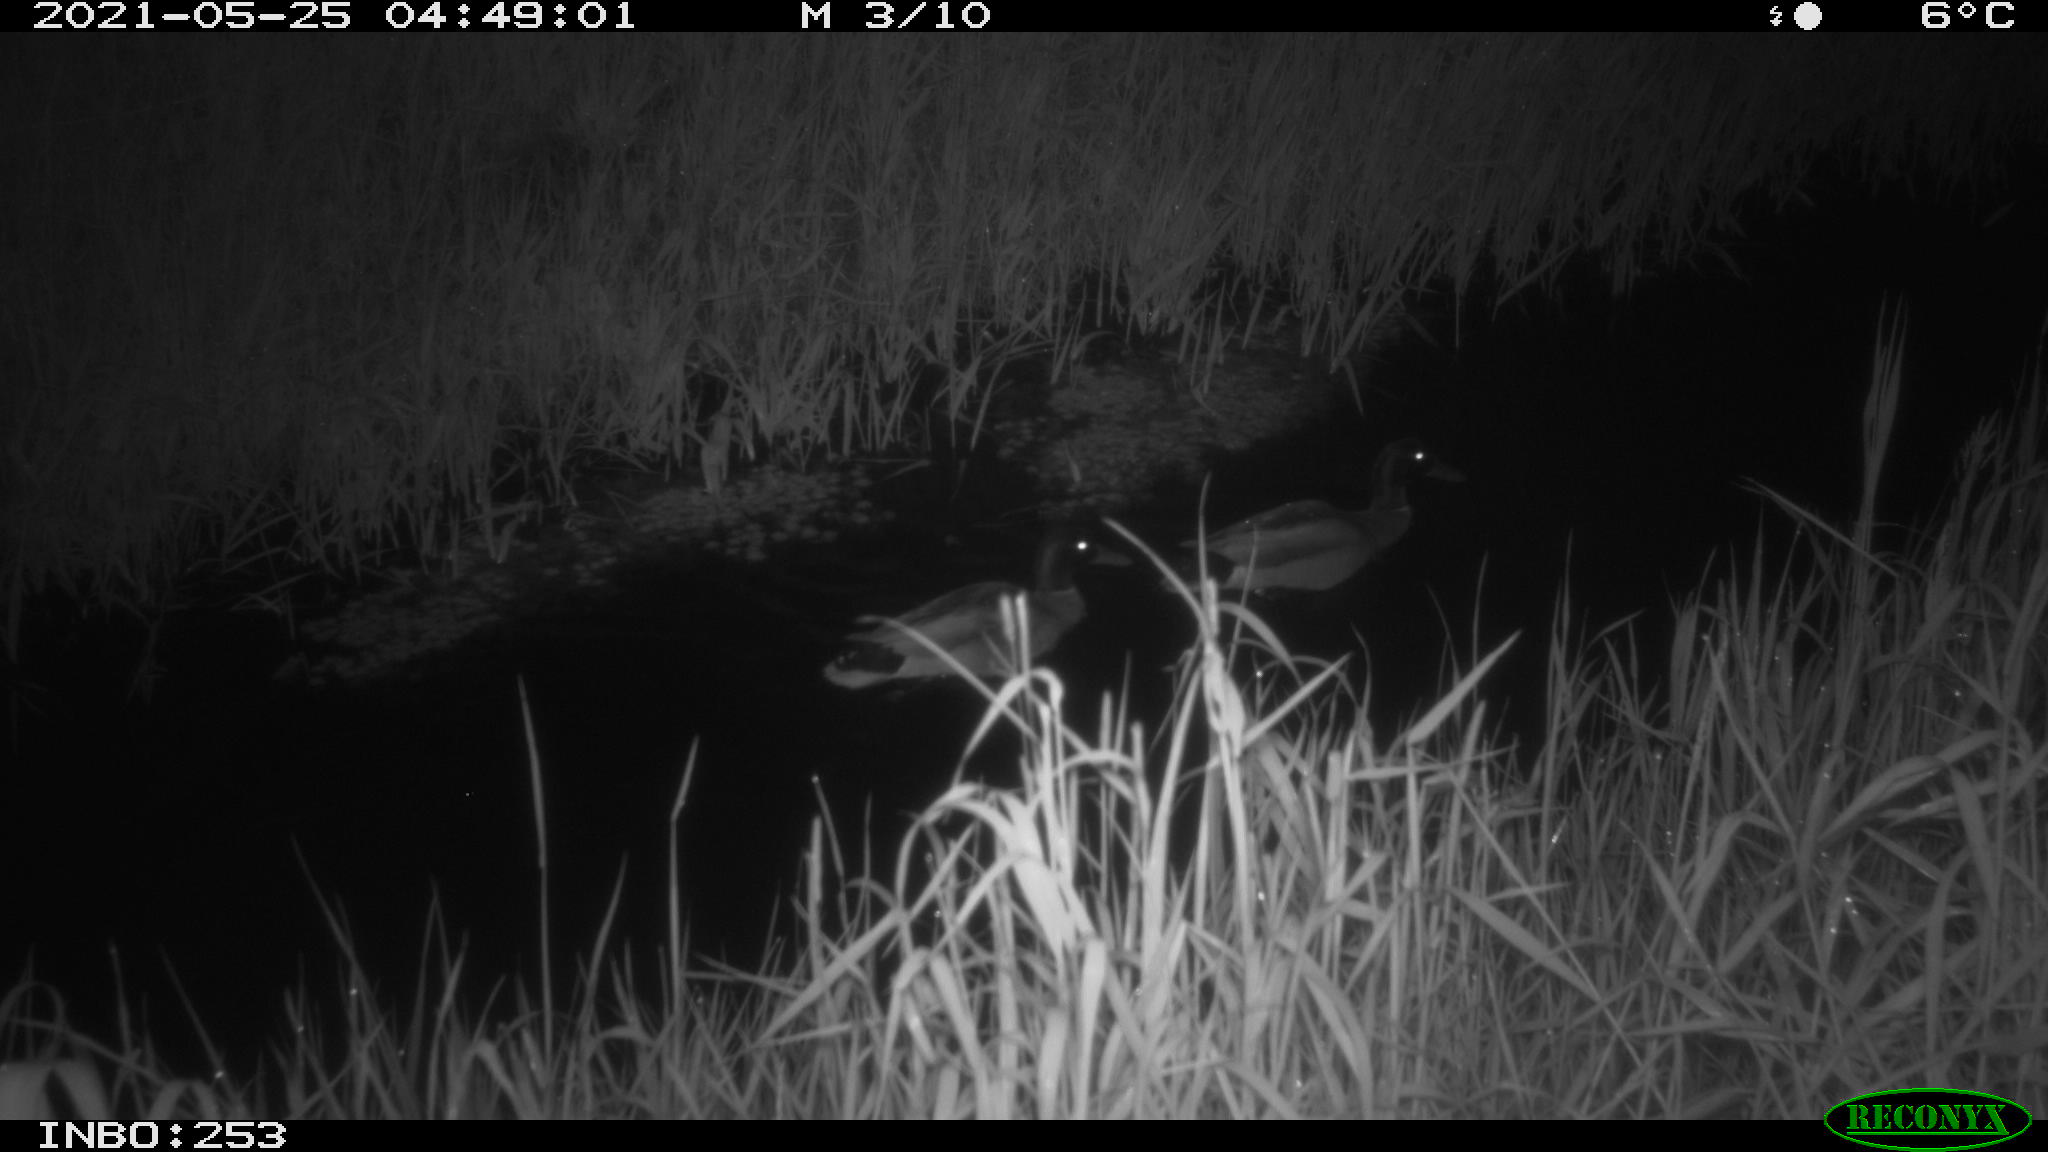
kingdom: Animalia
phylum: Chordata
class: Aves
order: Anseriformes
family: Anatidae
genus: Anas
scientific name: Anas platyrhynchos
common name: Mallard
